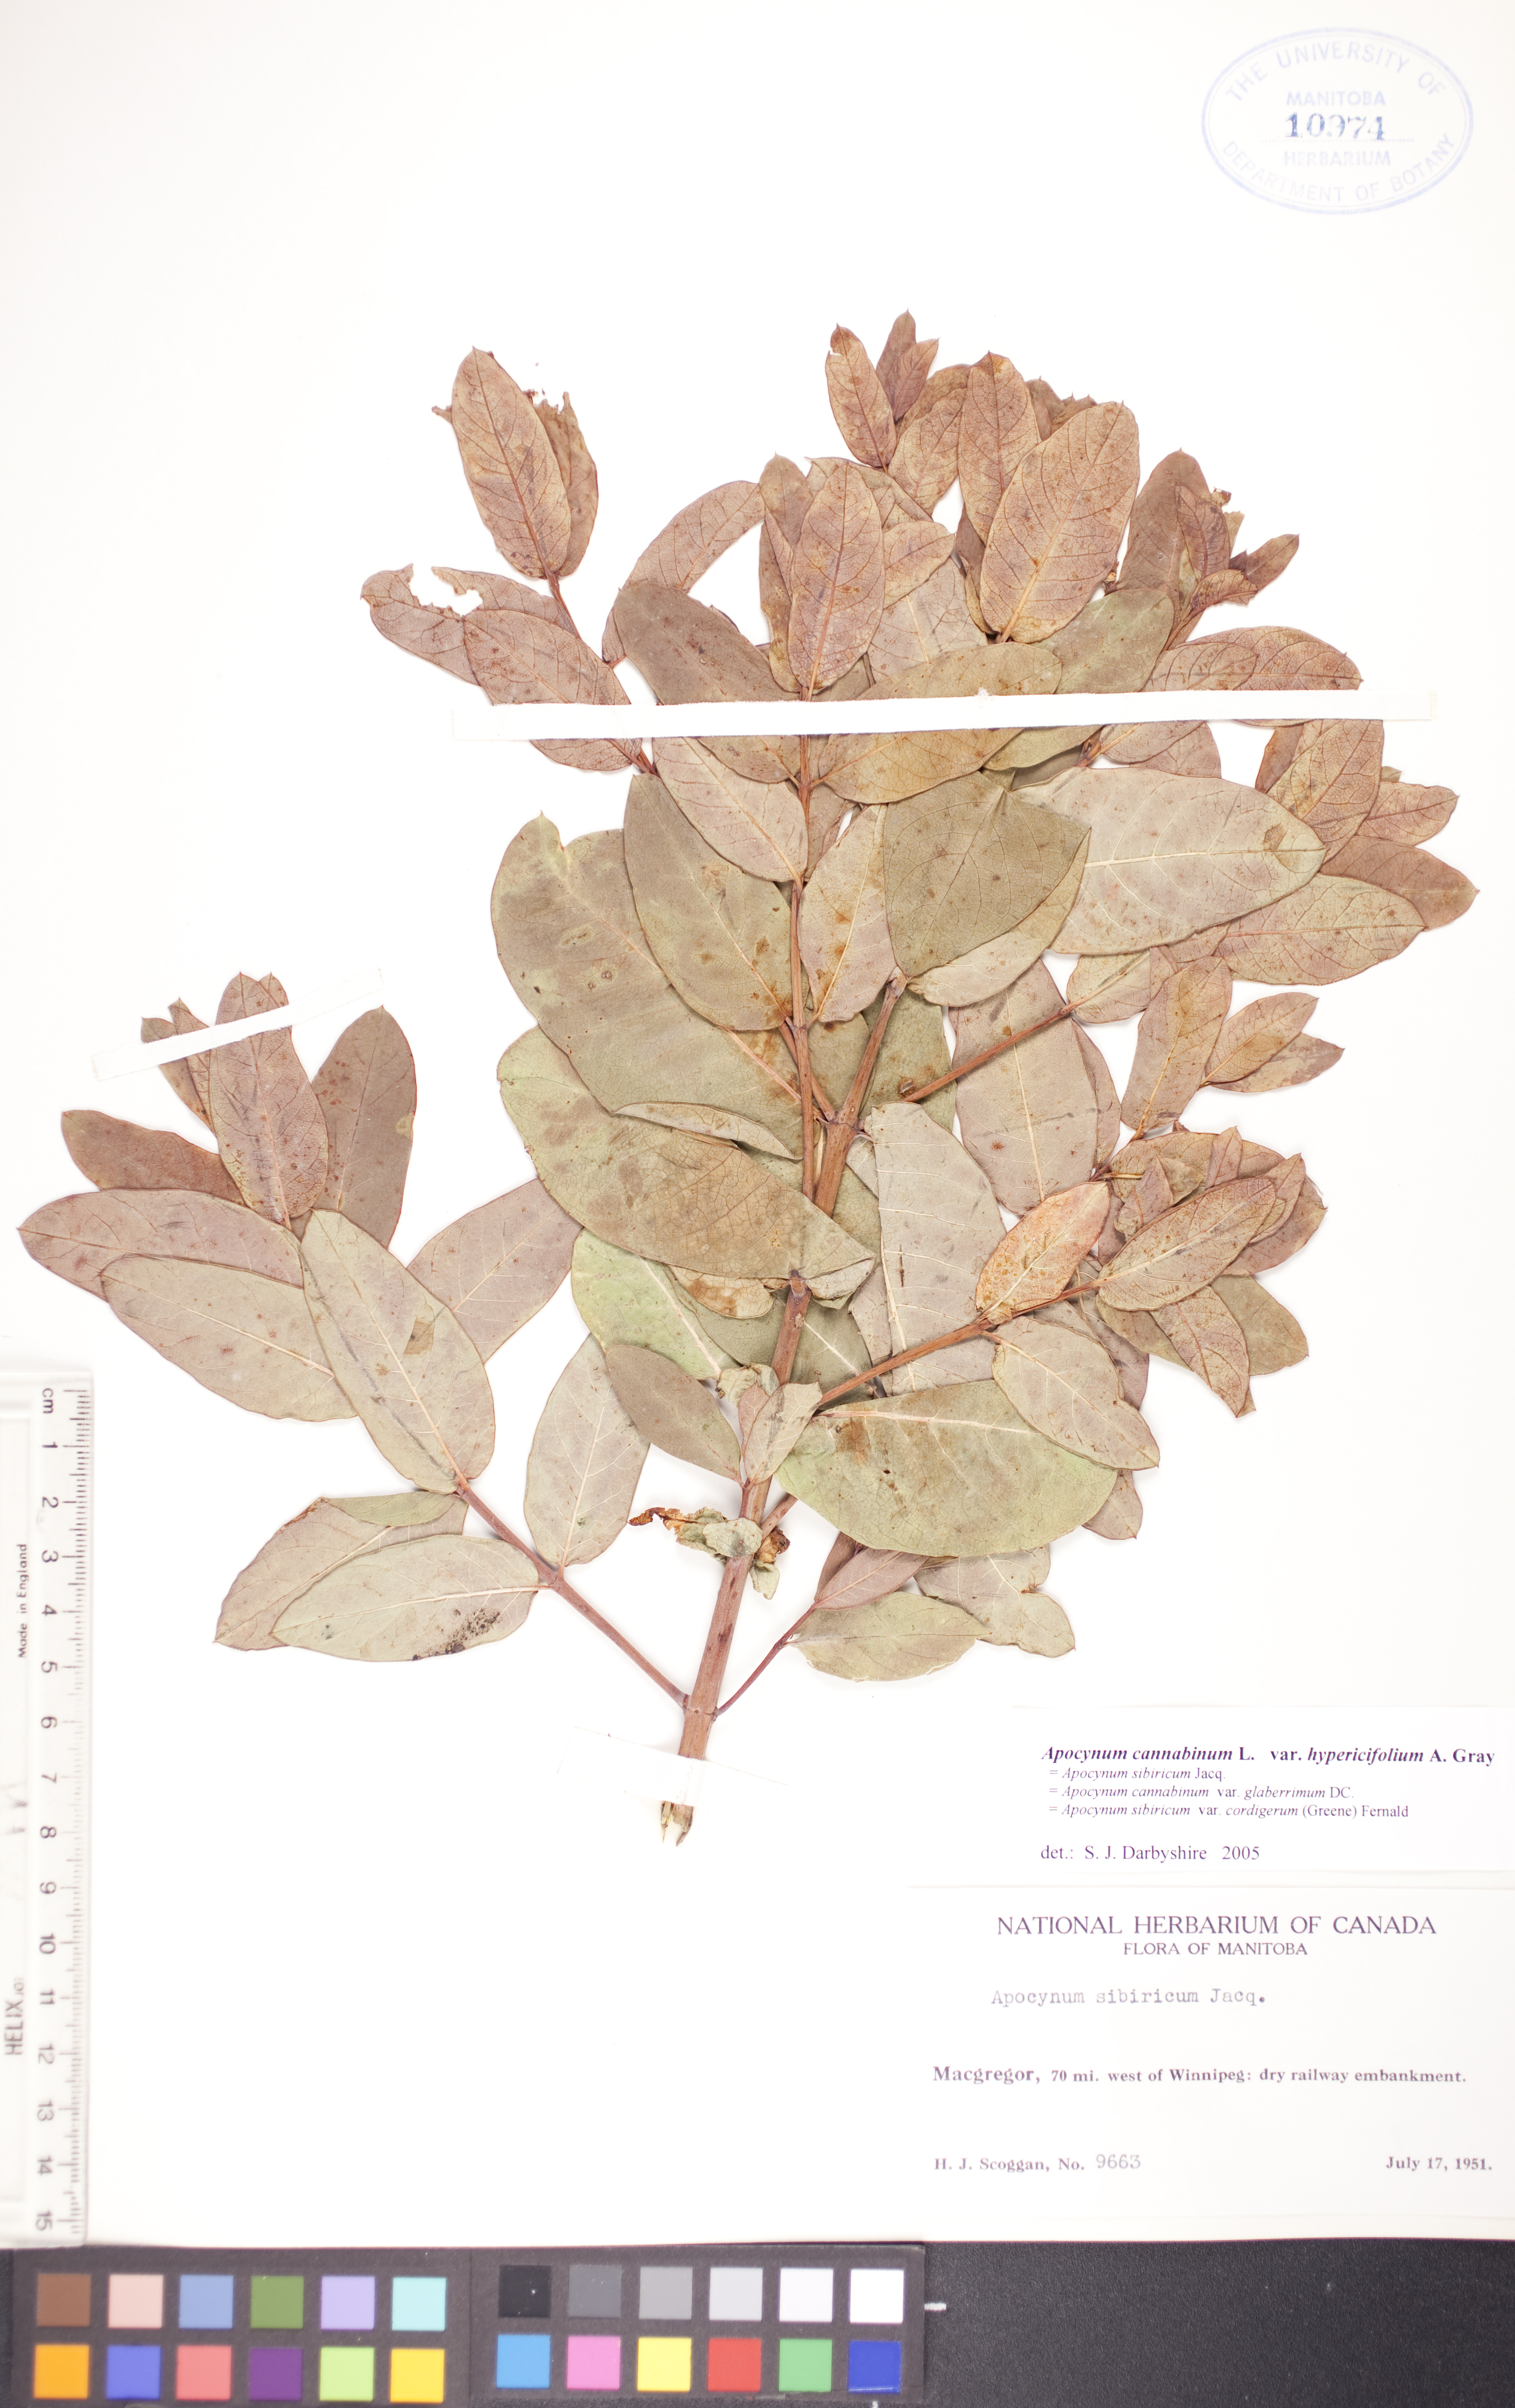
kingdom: Plantae
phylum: Tracheophyta
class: Magnoliopsida
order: Gentianales
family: Apocynaceae
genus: Apocynum
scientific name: Apocynum cannabinum
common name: Hemp dogbane
